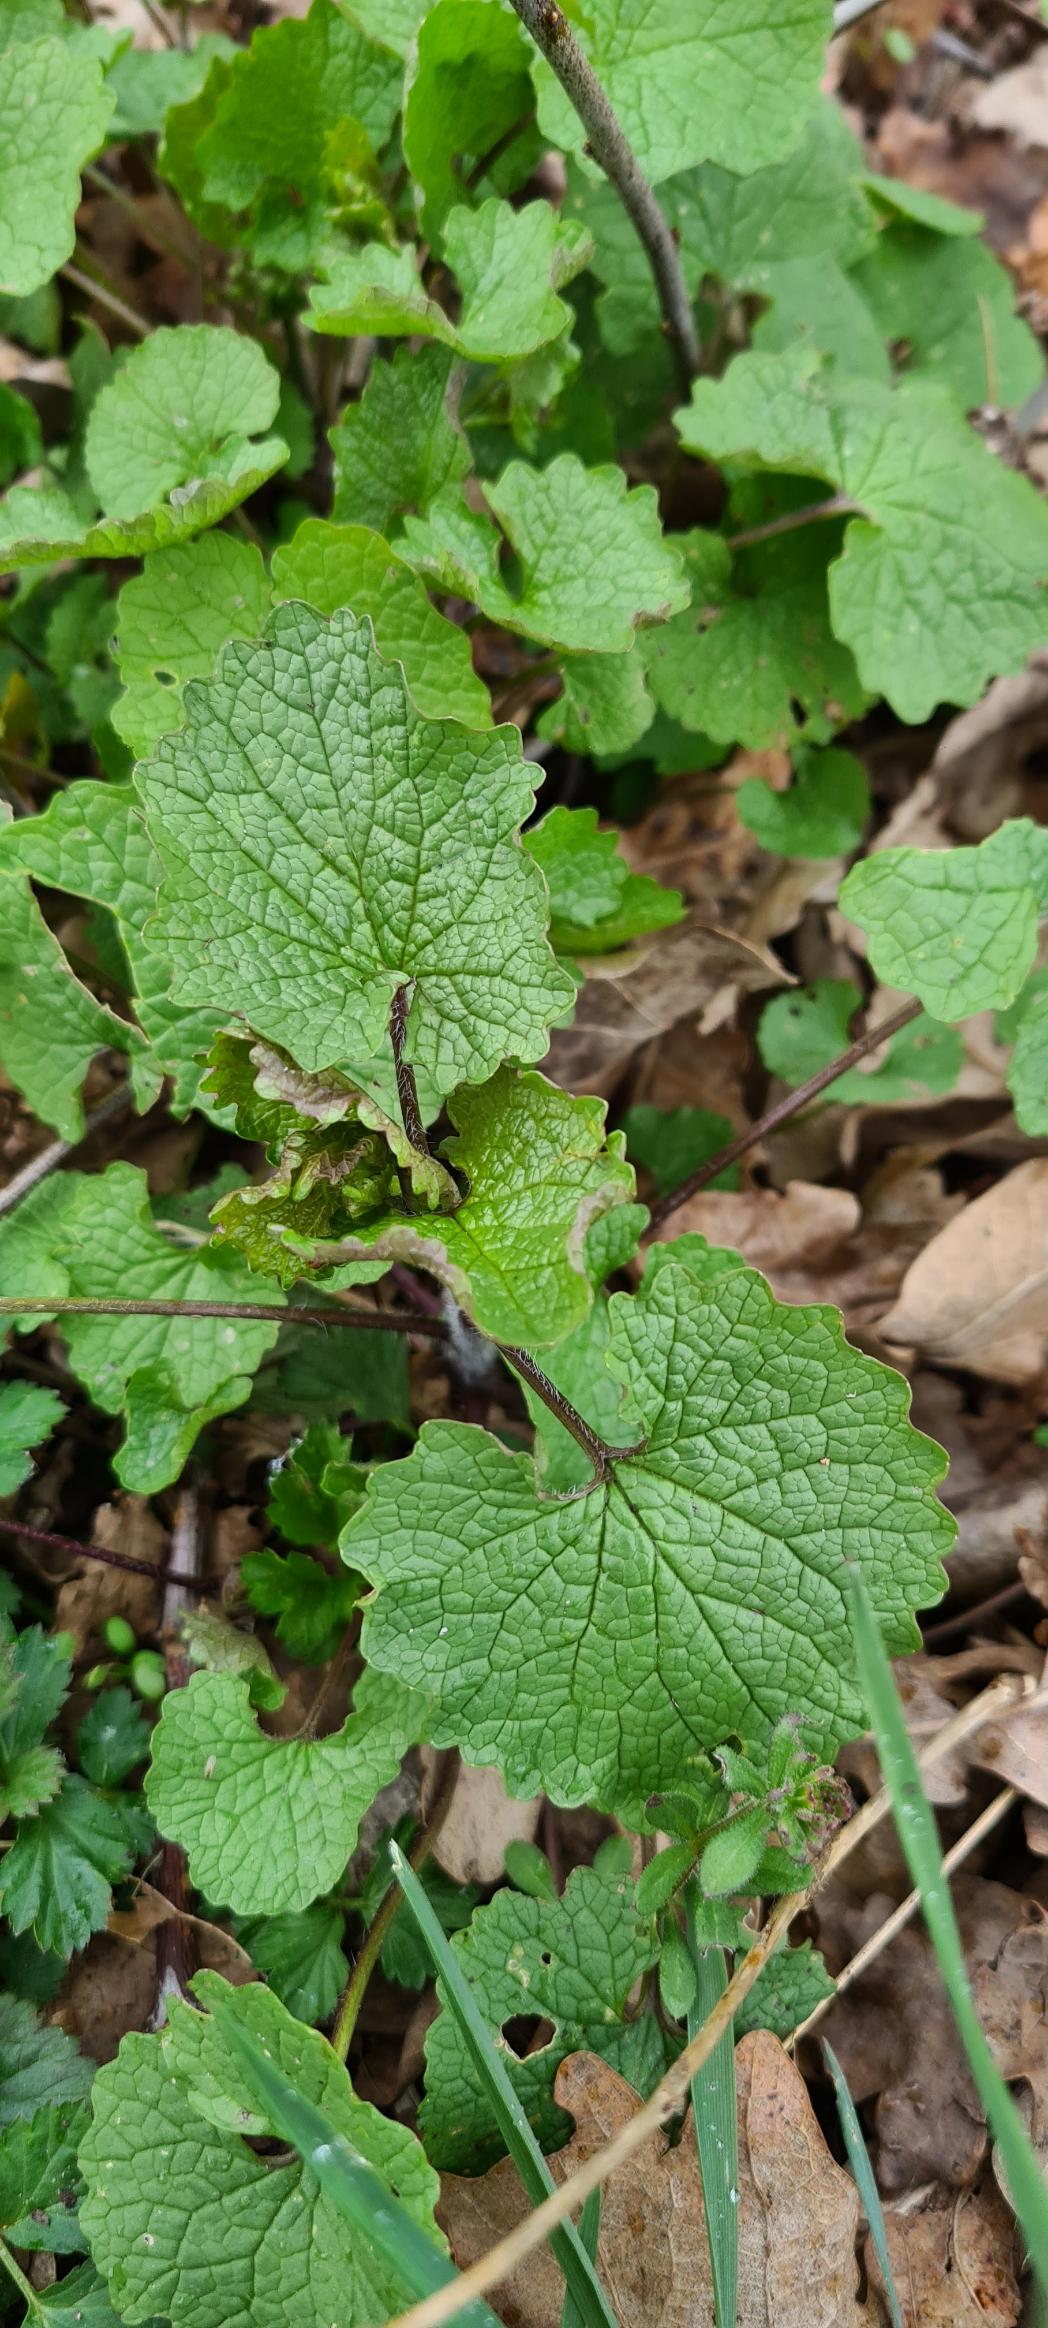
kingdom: Plantae
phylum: Tracheophyta
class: Magnoliopsida
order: Brassicales
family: Brassicaceae
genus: Alliaria
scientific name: Alliaria petiolata
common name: Løgkarse
